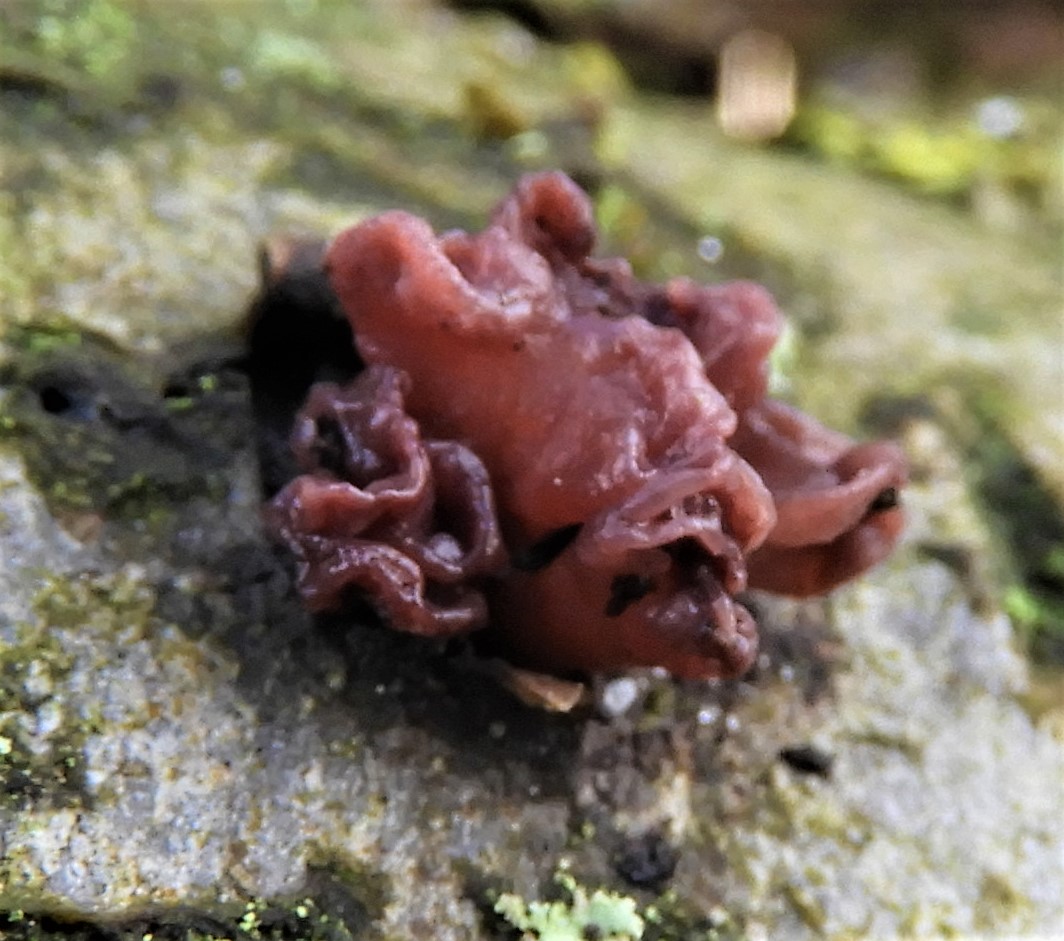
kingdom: Fungi
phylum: Ascomycota
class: Leotiomycetes
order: Helotiales
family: Gelatinodiscaceae
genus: Ascocoryne
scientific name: Ascocoryne sarcoides
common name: rødlilla sejskive
